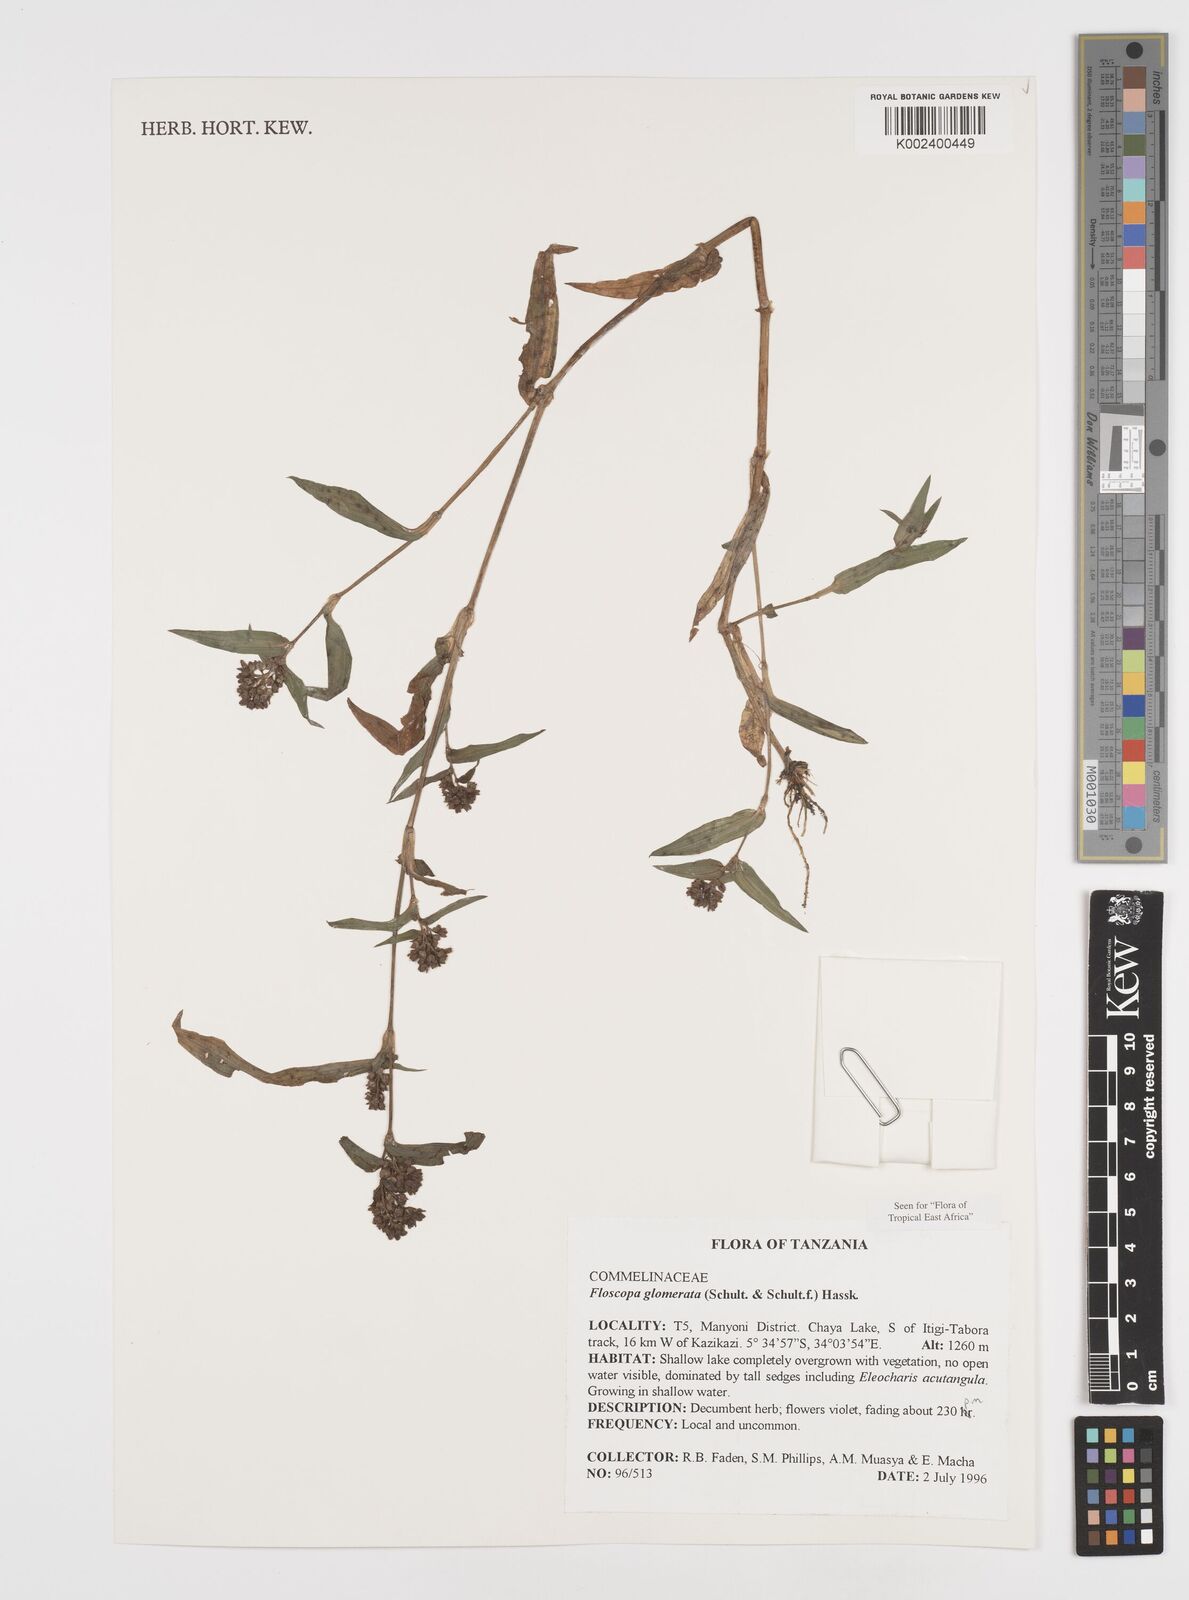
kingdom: Plantae
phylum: Tracheophyta
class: Liliopsida
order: Commelinales
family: Commelinaceae
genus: Floscopa
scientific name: Floscopa glomerata
